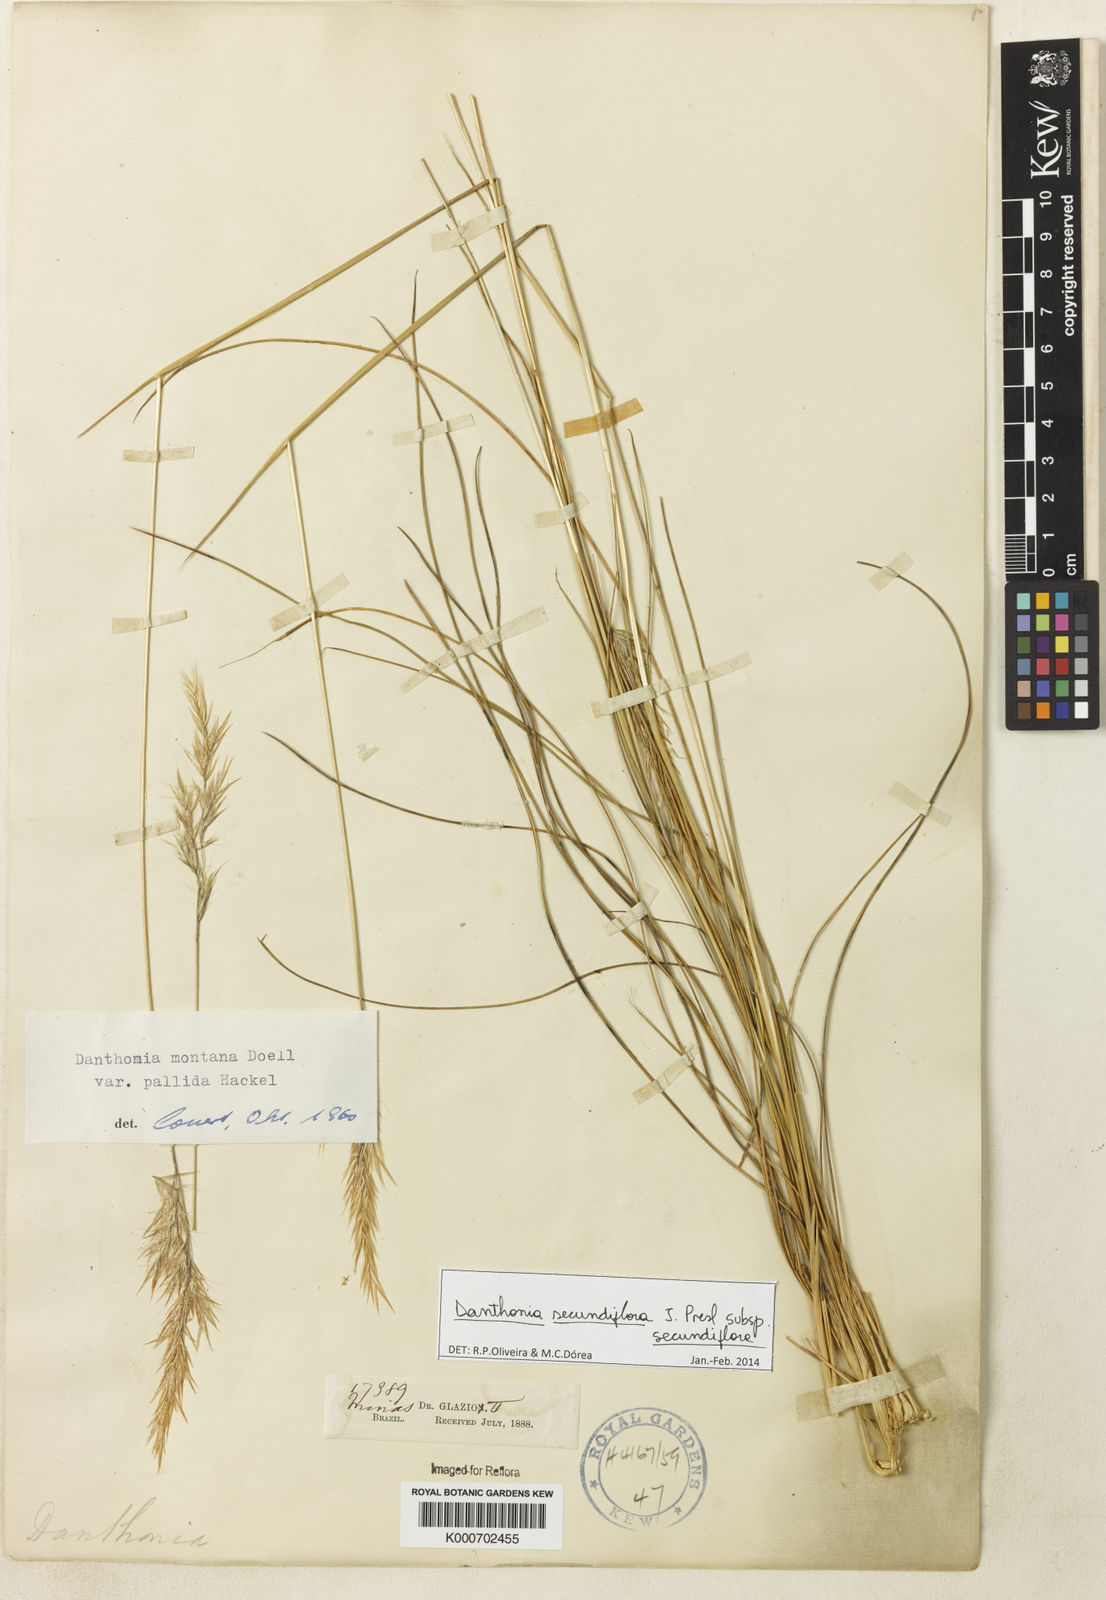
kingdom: Plantae
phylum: Tracheophyta
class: Liliopsida
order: Poales
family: Poaceae
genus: Danthonia
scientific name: Danthonia secundiflora
